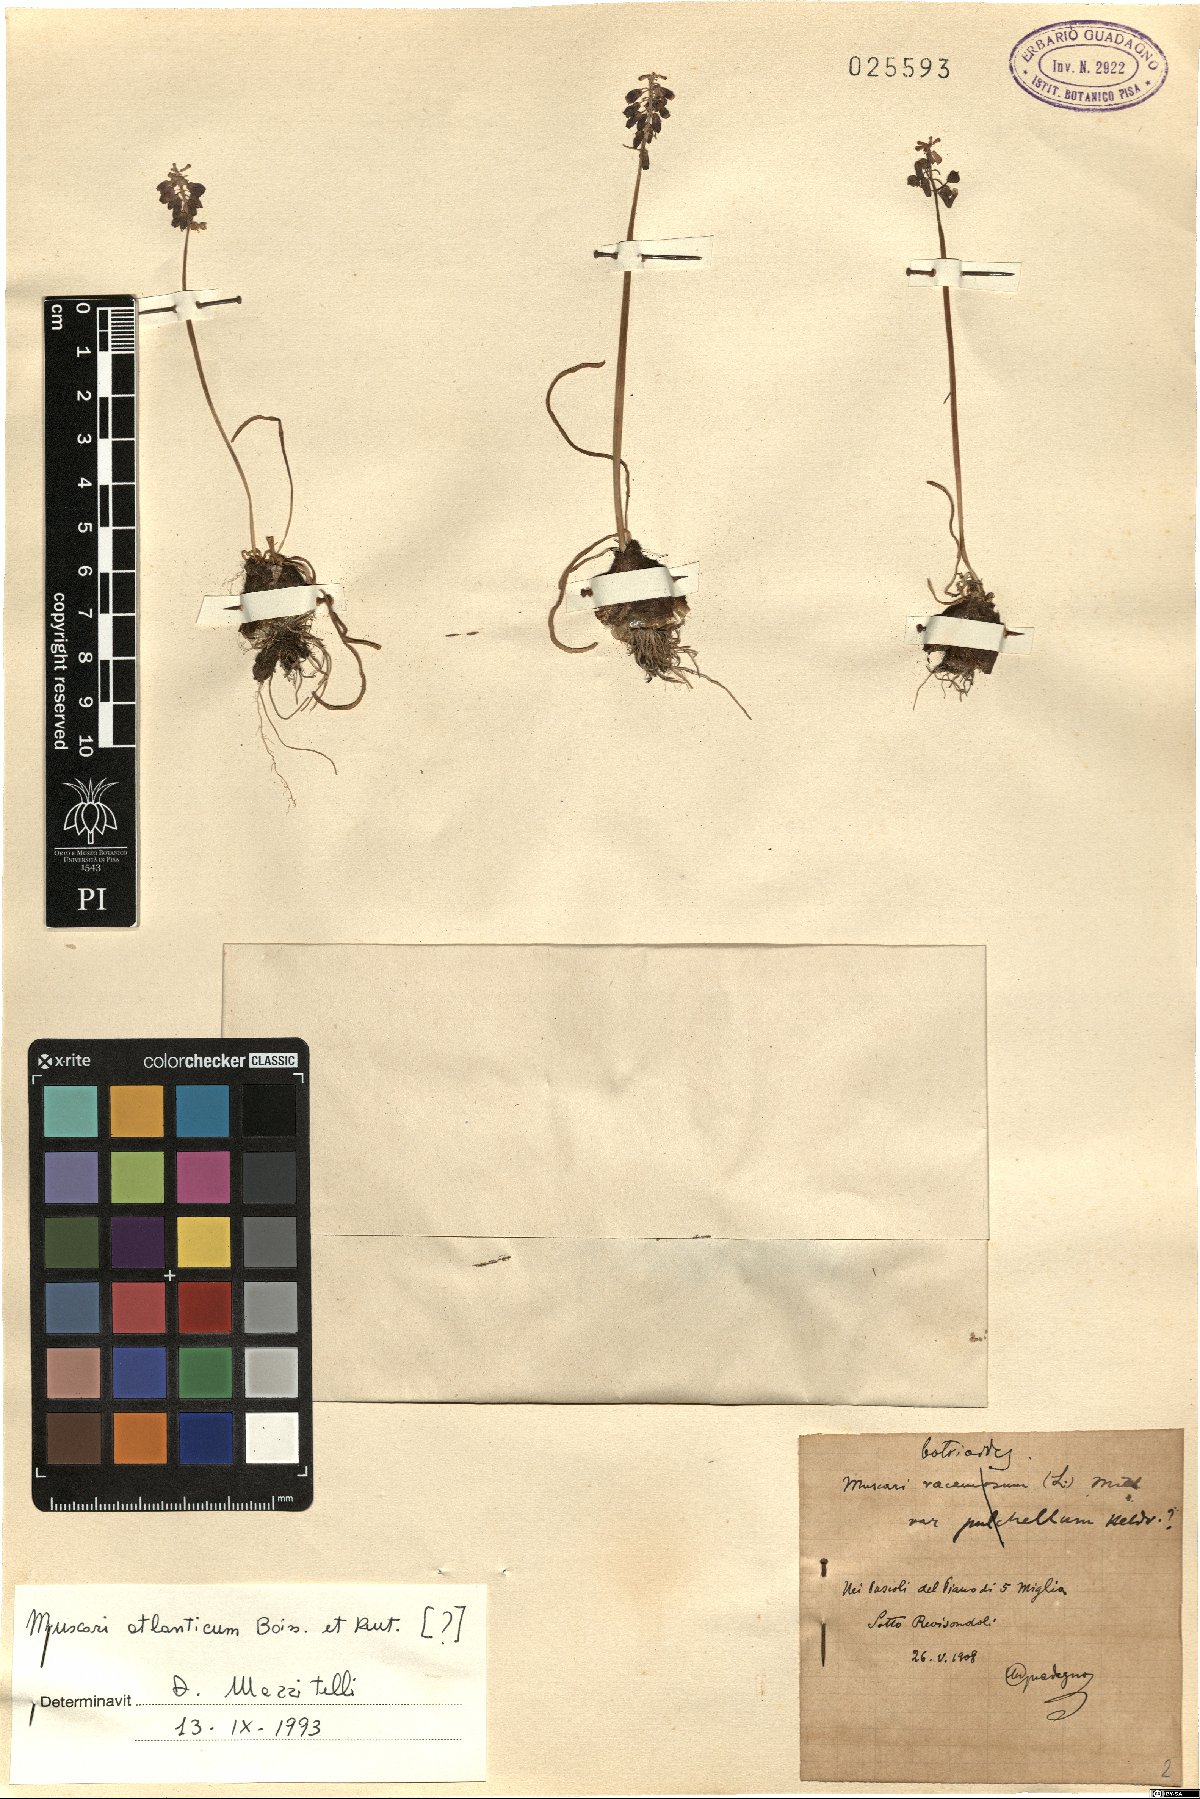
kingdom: Plantae
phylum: Tracheophyta
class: Liliopsida
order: Asparagales
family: Asparagaceae
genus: Muscari
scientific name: Muscari atlanticum
